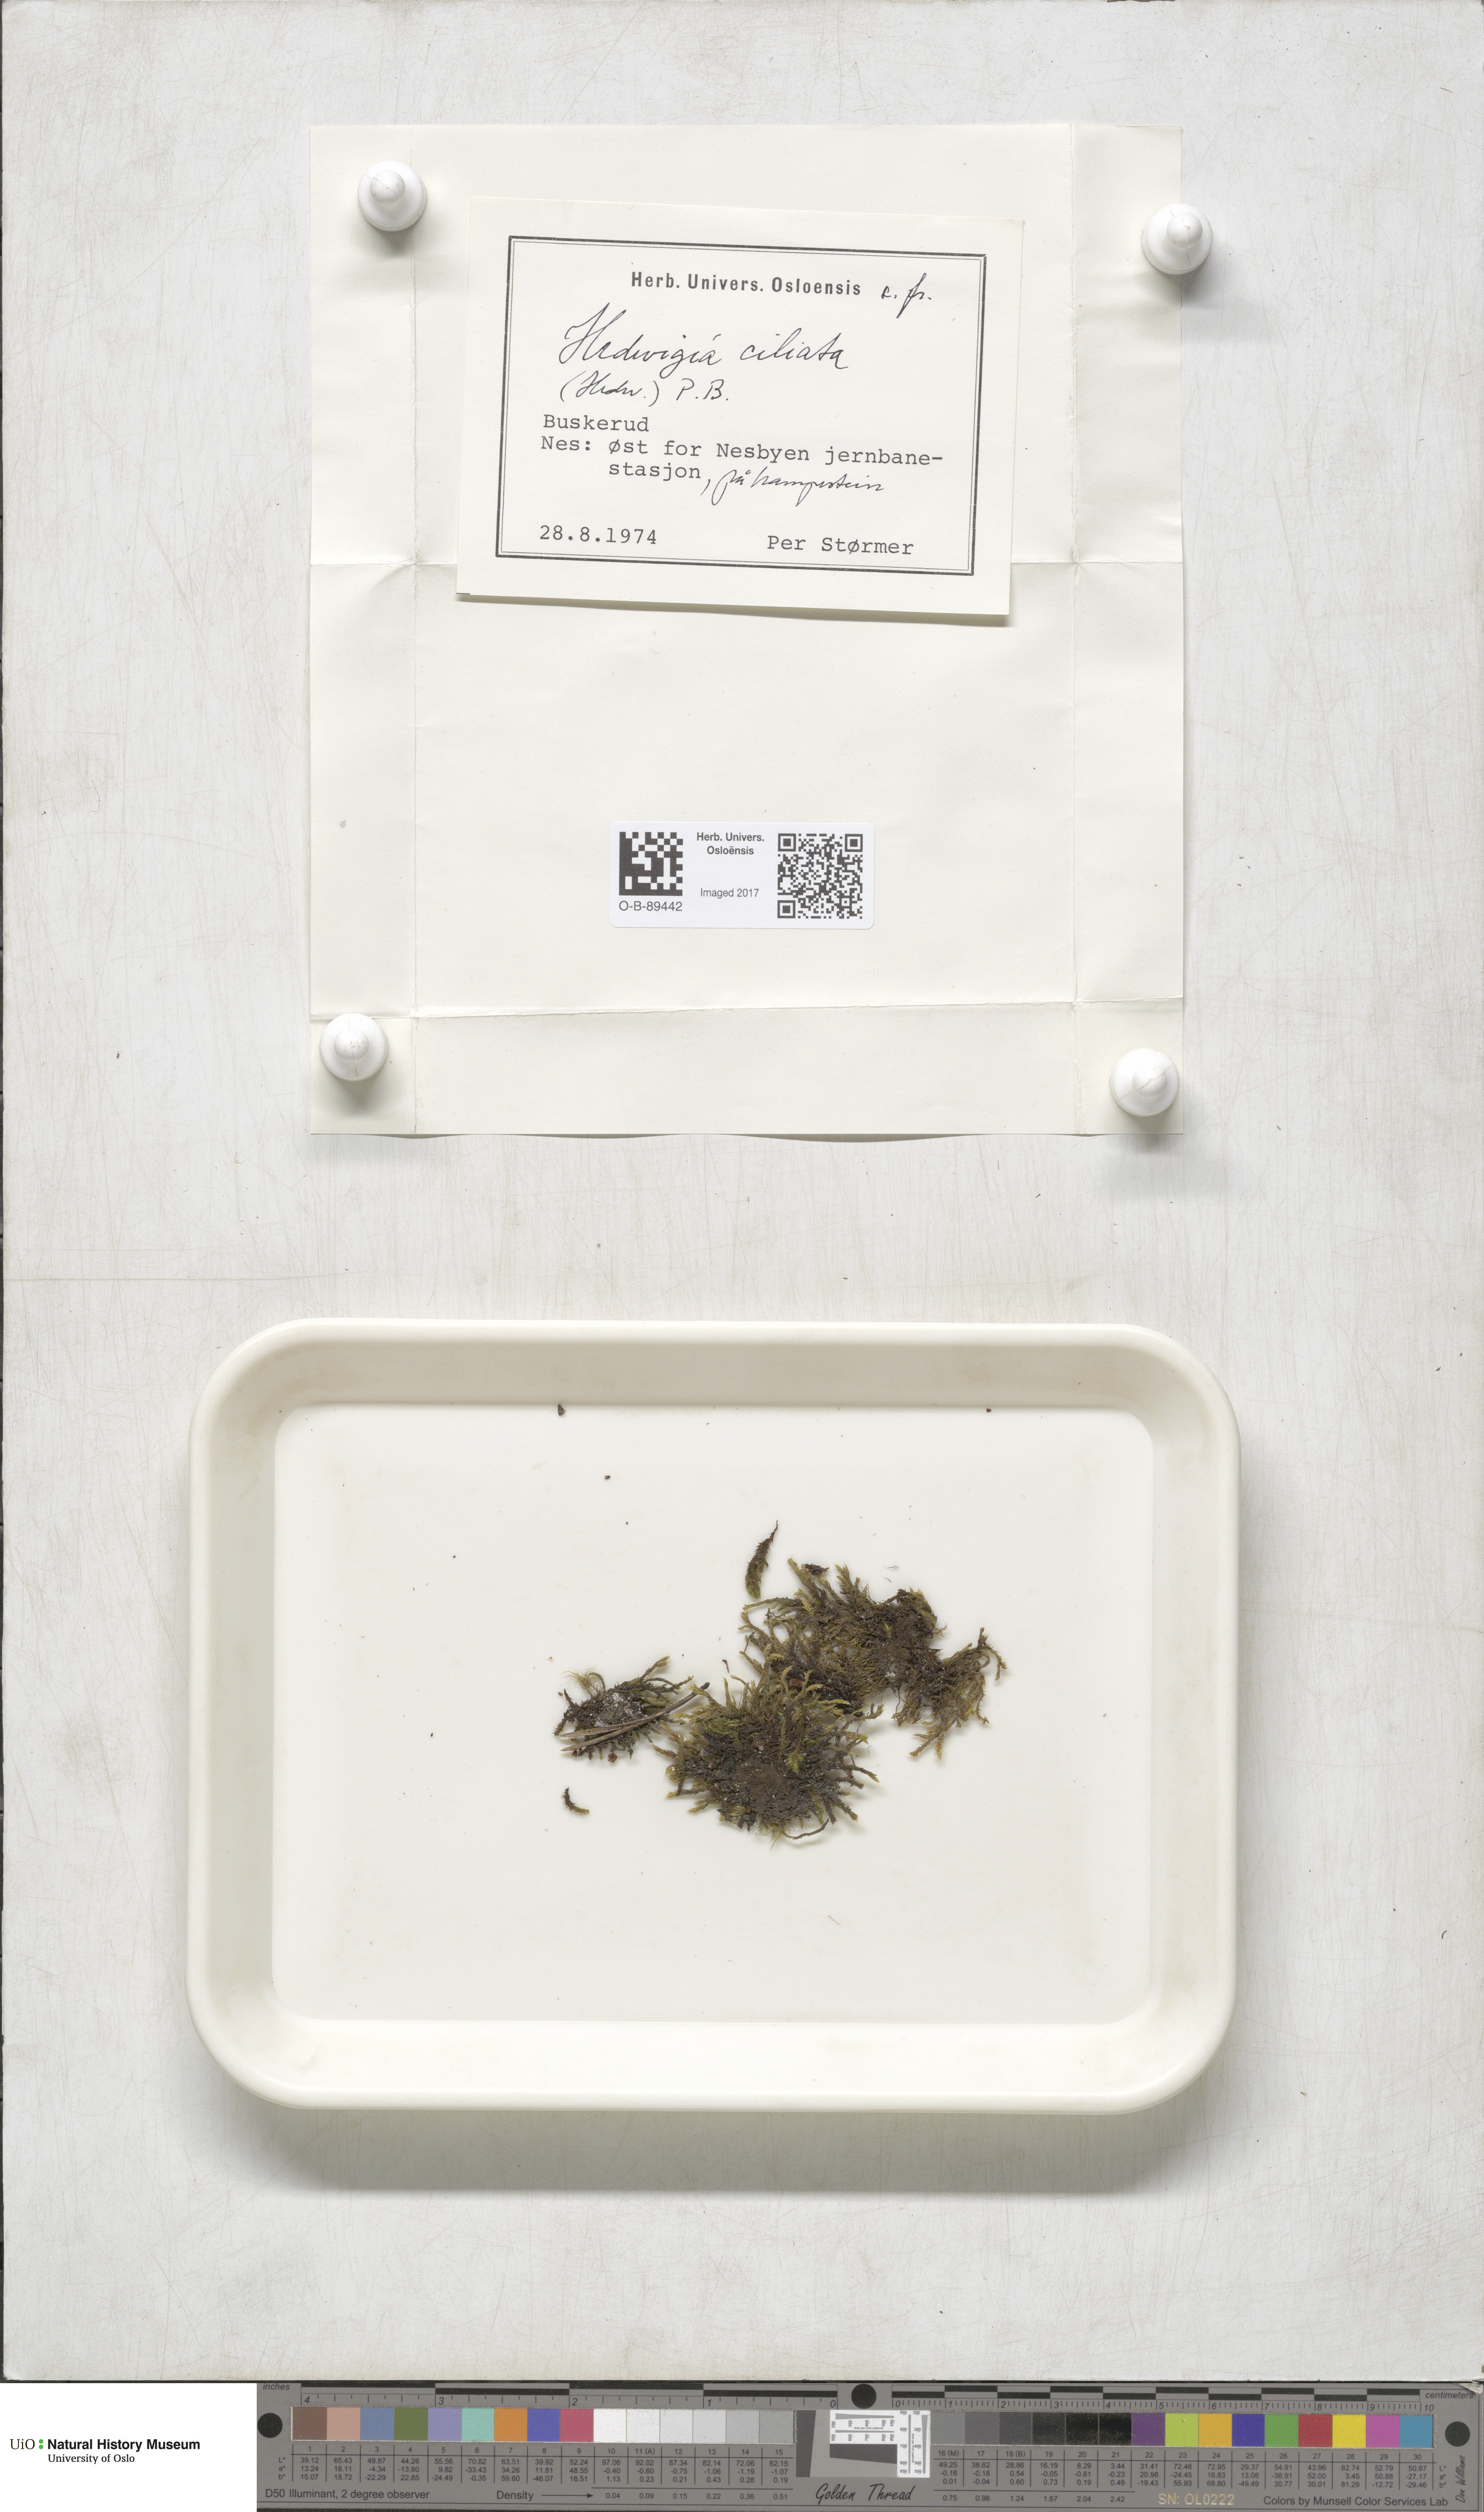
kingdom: Plantae
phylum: Bryophyta
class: Bryopsida
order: Hedwigiales
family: Hedwigiaceae
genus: Hedwigia
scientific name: Hedwigia ciliata
